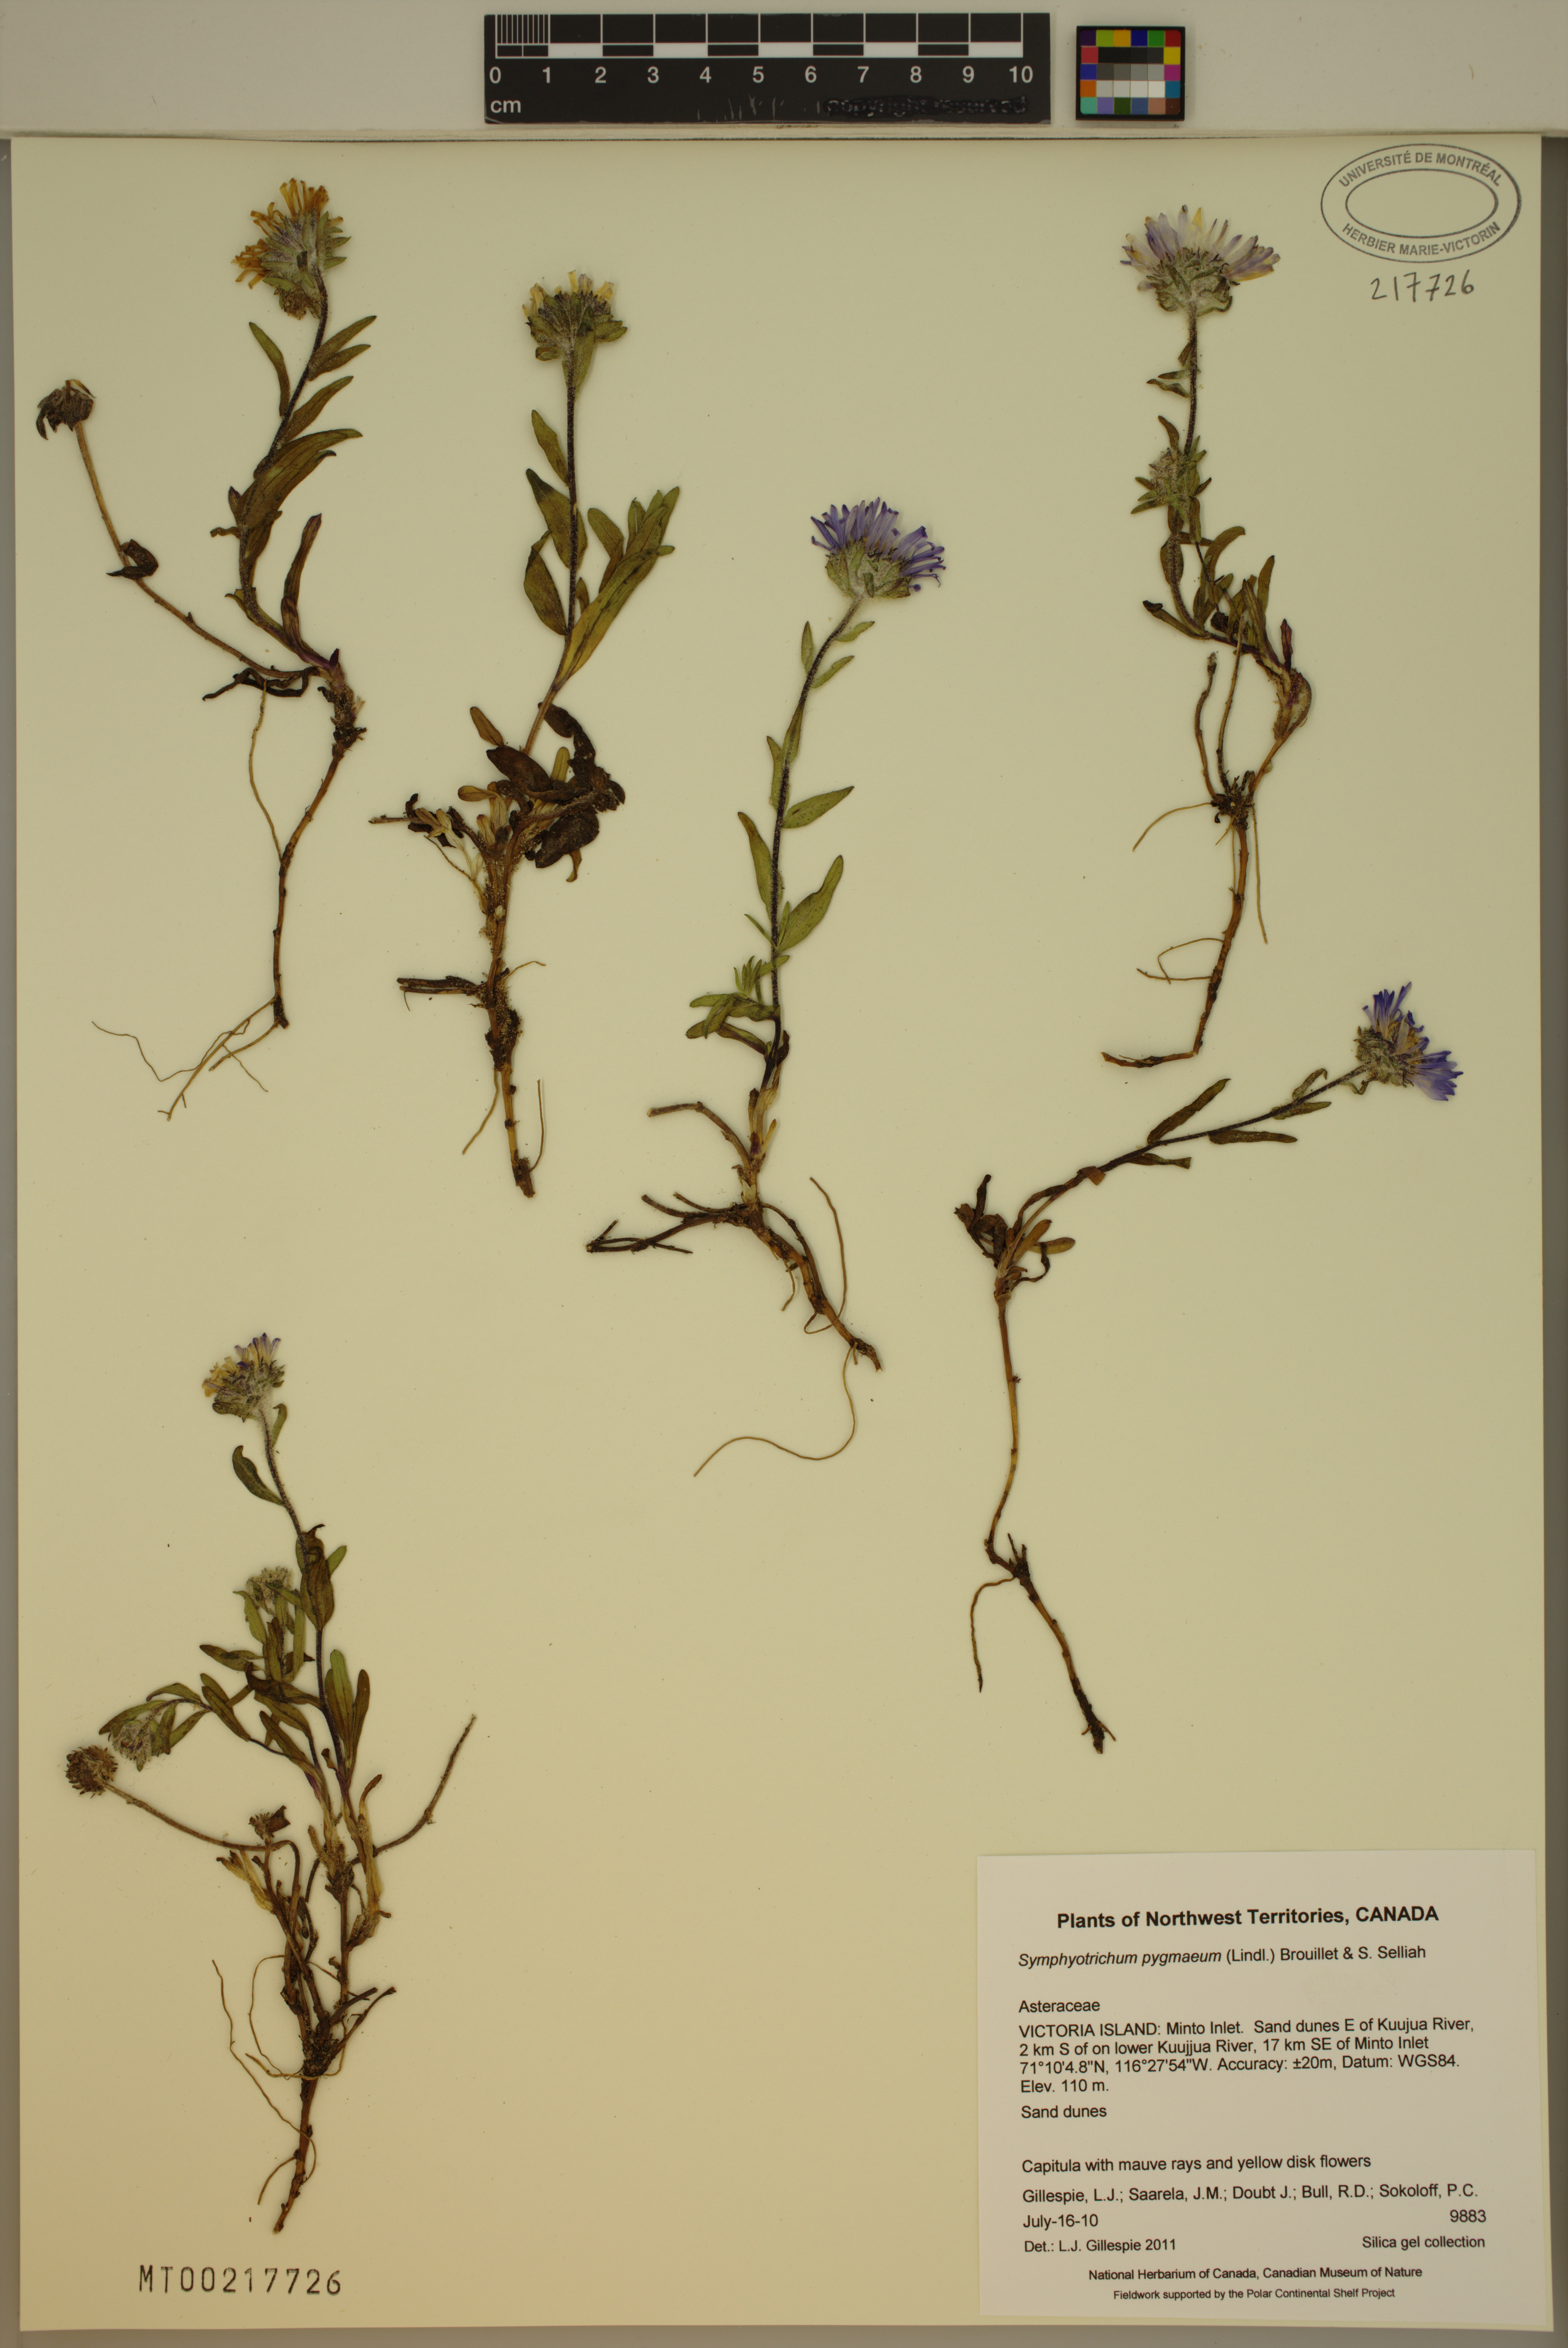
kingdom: Plantae
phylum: Tracheophyta
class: Magnoliopsida
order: Asterales
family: Asteraceae
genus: Symphyotrichum
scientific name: Symphyotrichum pygmaeum
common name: Pygmy aster
